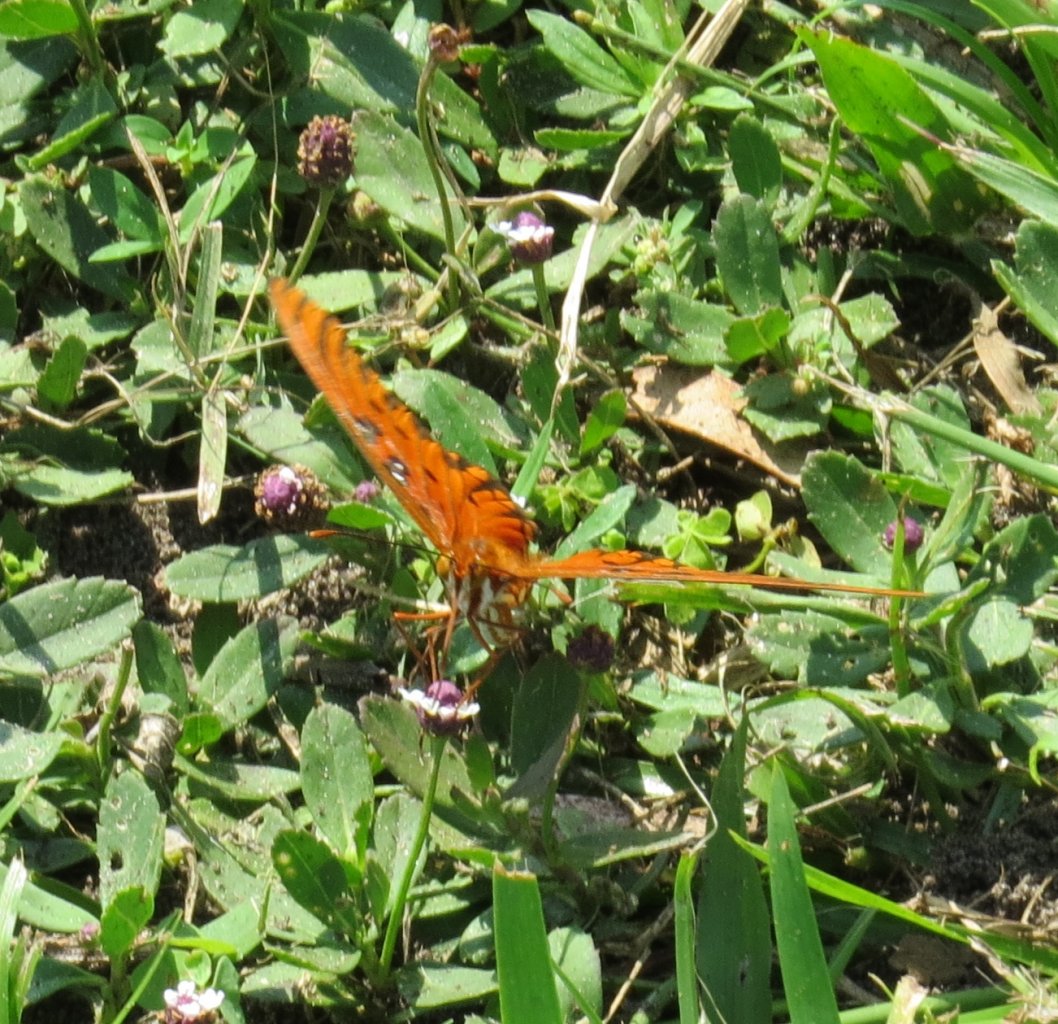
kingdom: Animalia
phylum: Arthropoda
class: Insecta
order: Lepidoptera
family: Nymphalidae
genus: Dione
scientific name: Dione vanillae
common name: Gulf Fritillary
